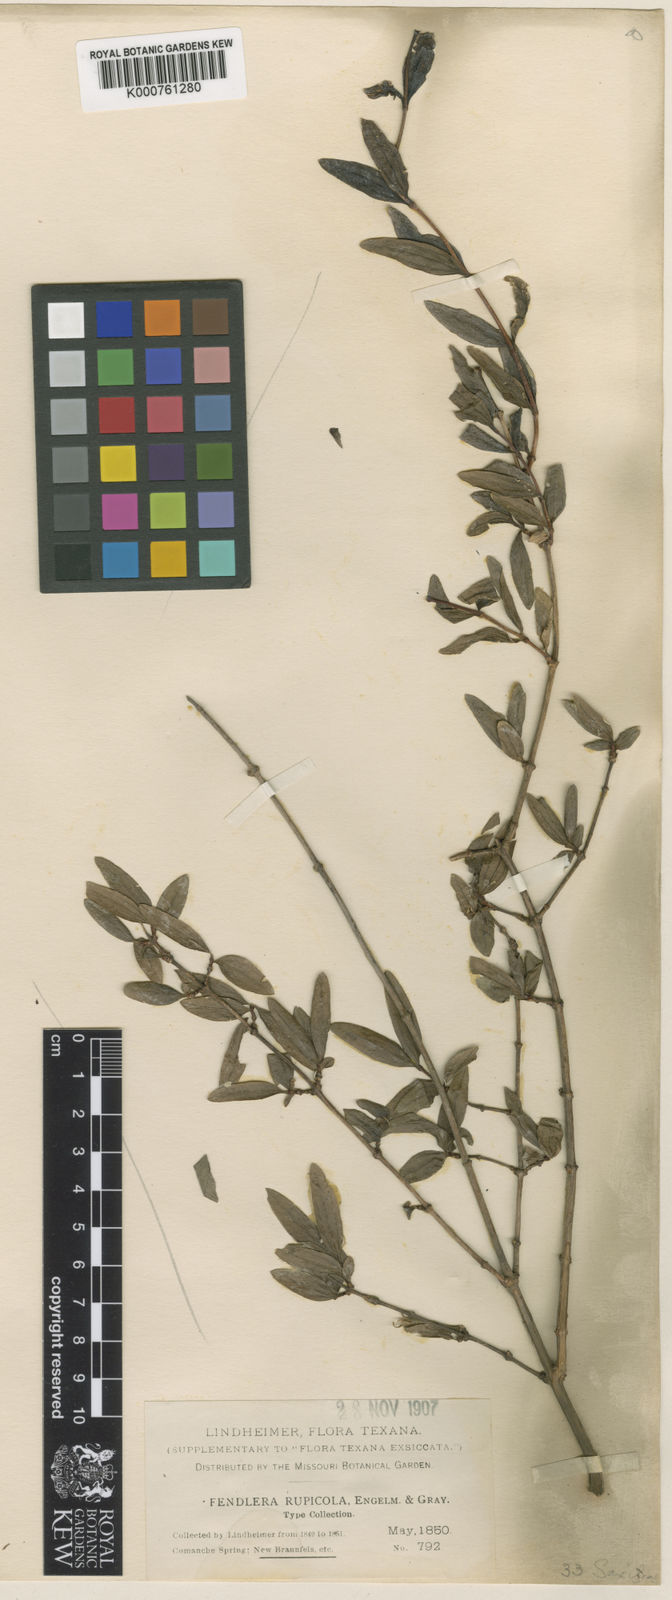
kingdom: Plantae
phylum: Tracheophyta
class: Magnoliopsida
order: Cornales
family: Hydrangeaceae
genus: Fendlera
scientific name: Fendlera rupicola
